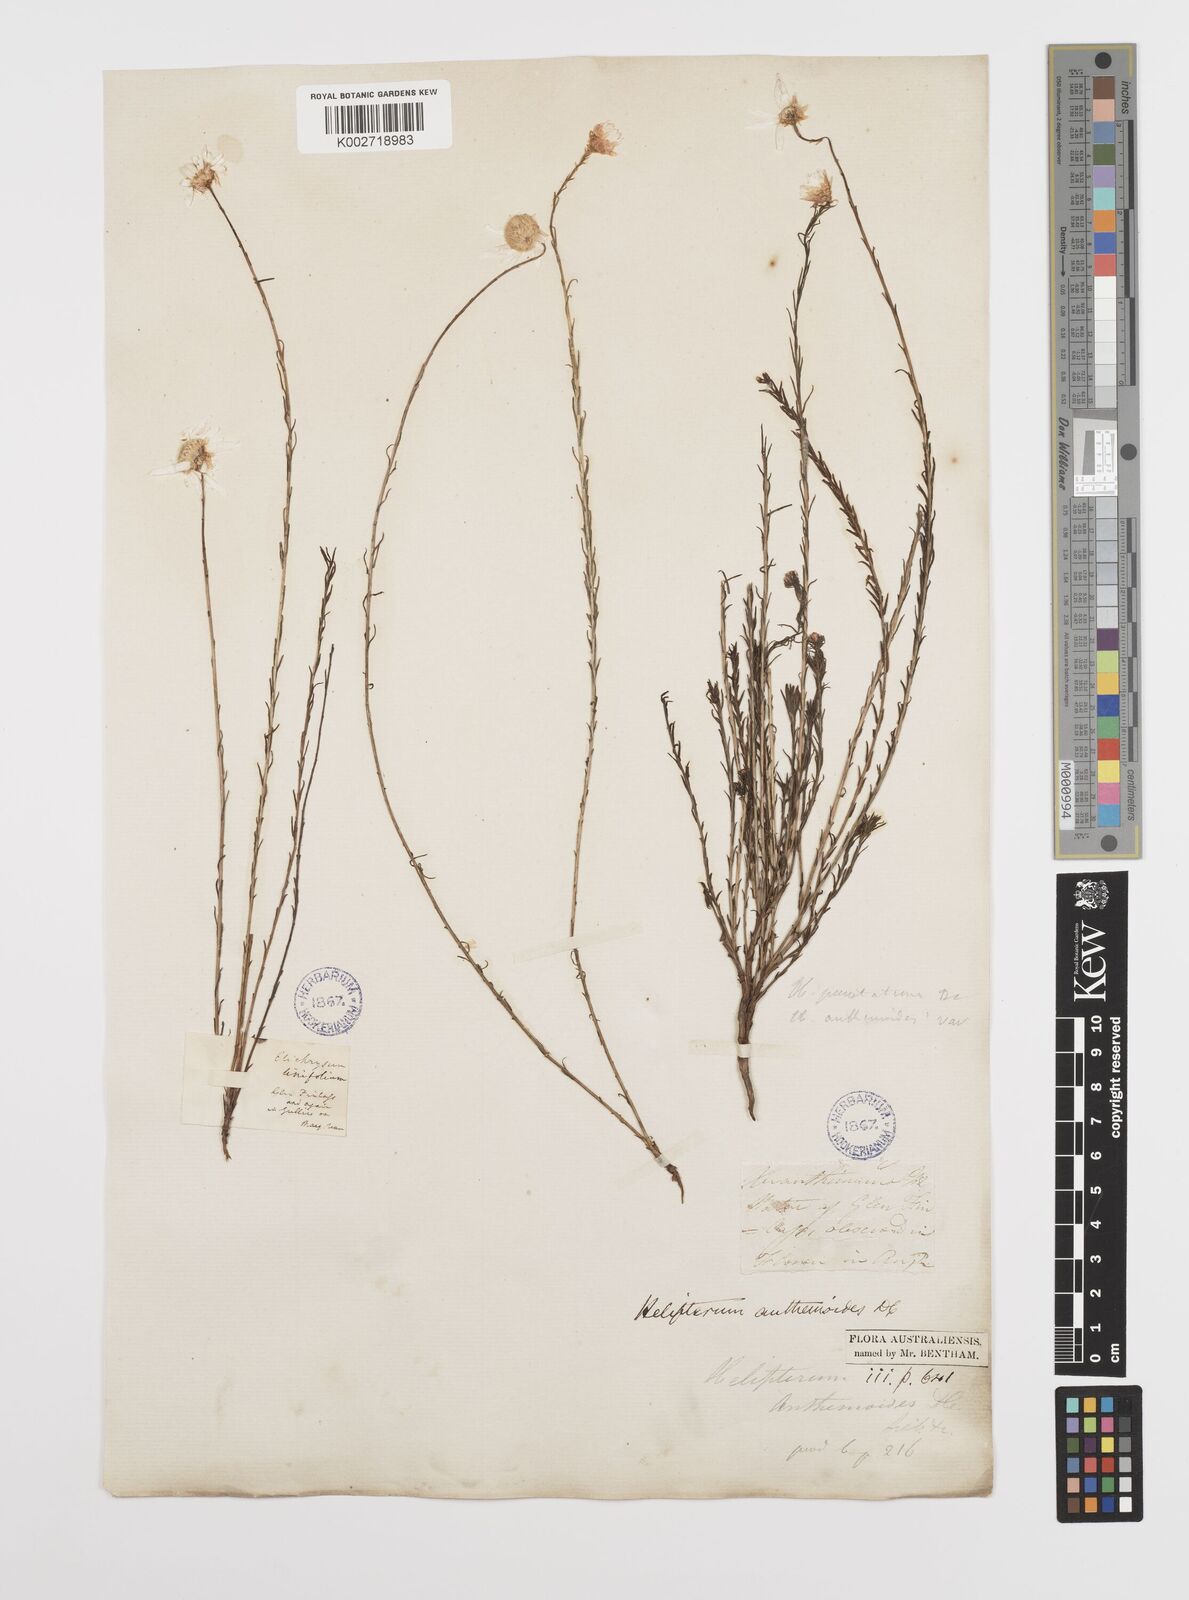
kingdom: Plantae
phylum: Tracheophyta
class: Magnoliopsida
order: Asterales
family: Asteraceae
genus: Rhodanthe
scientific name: Rhodanthe anthemoides
